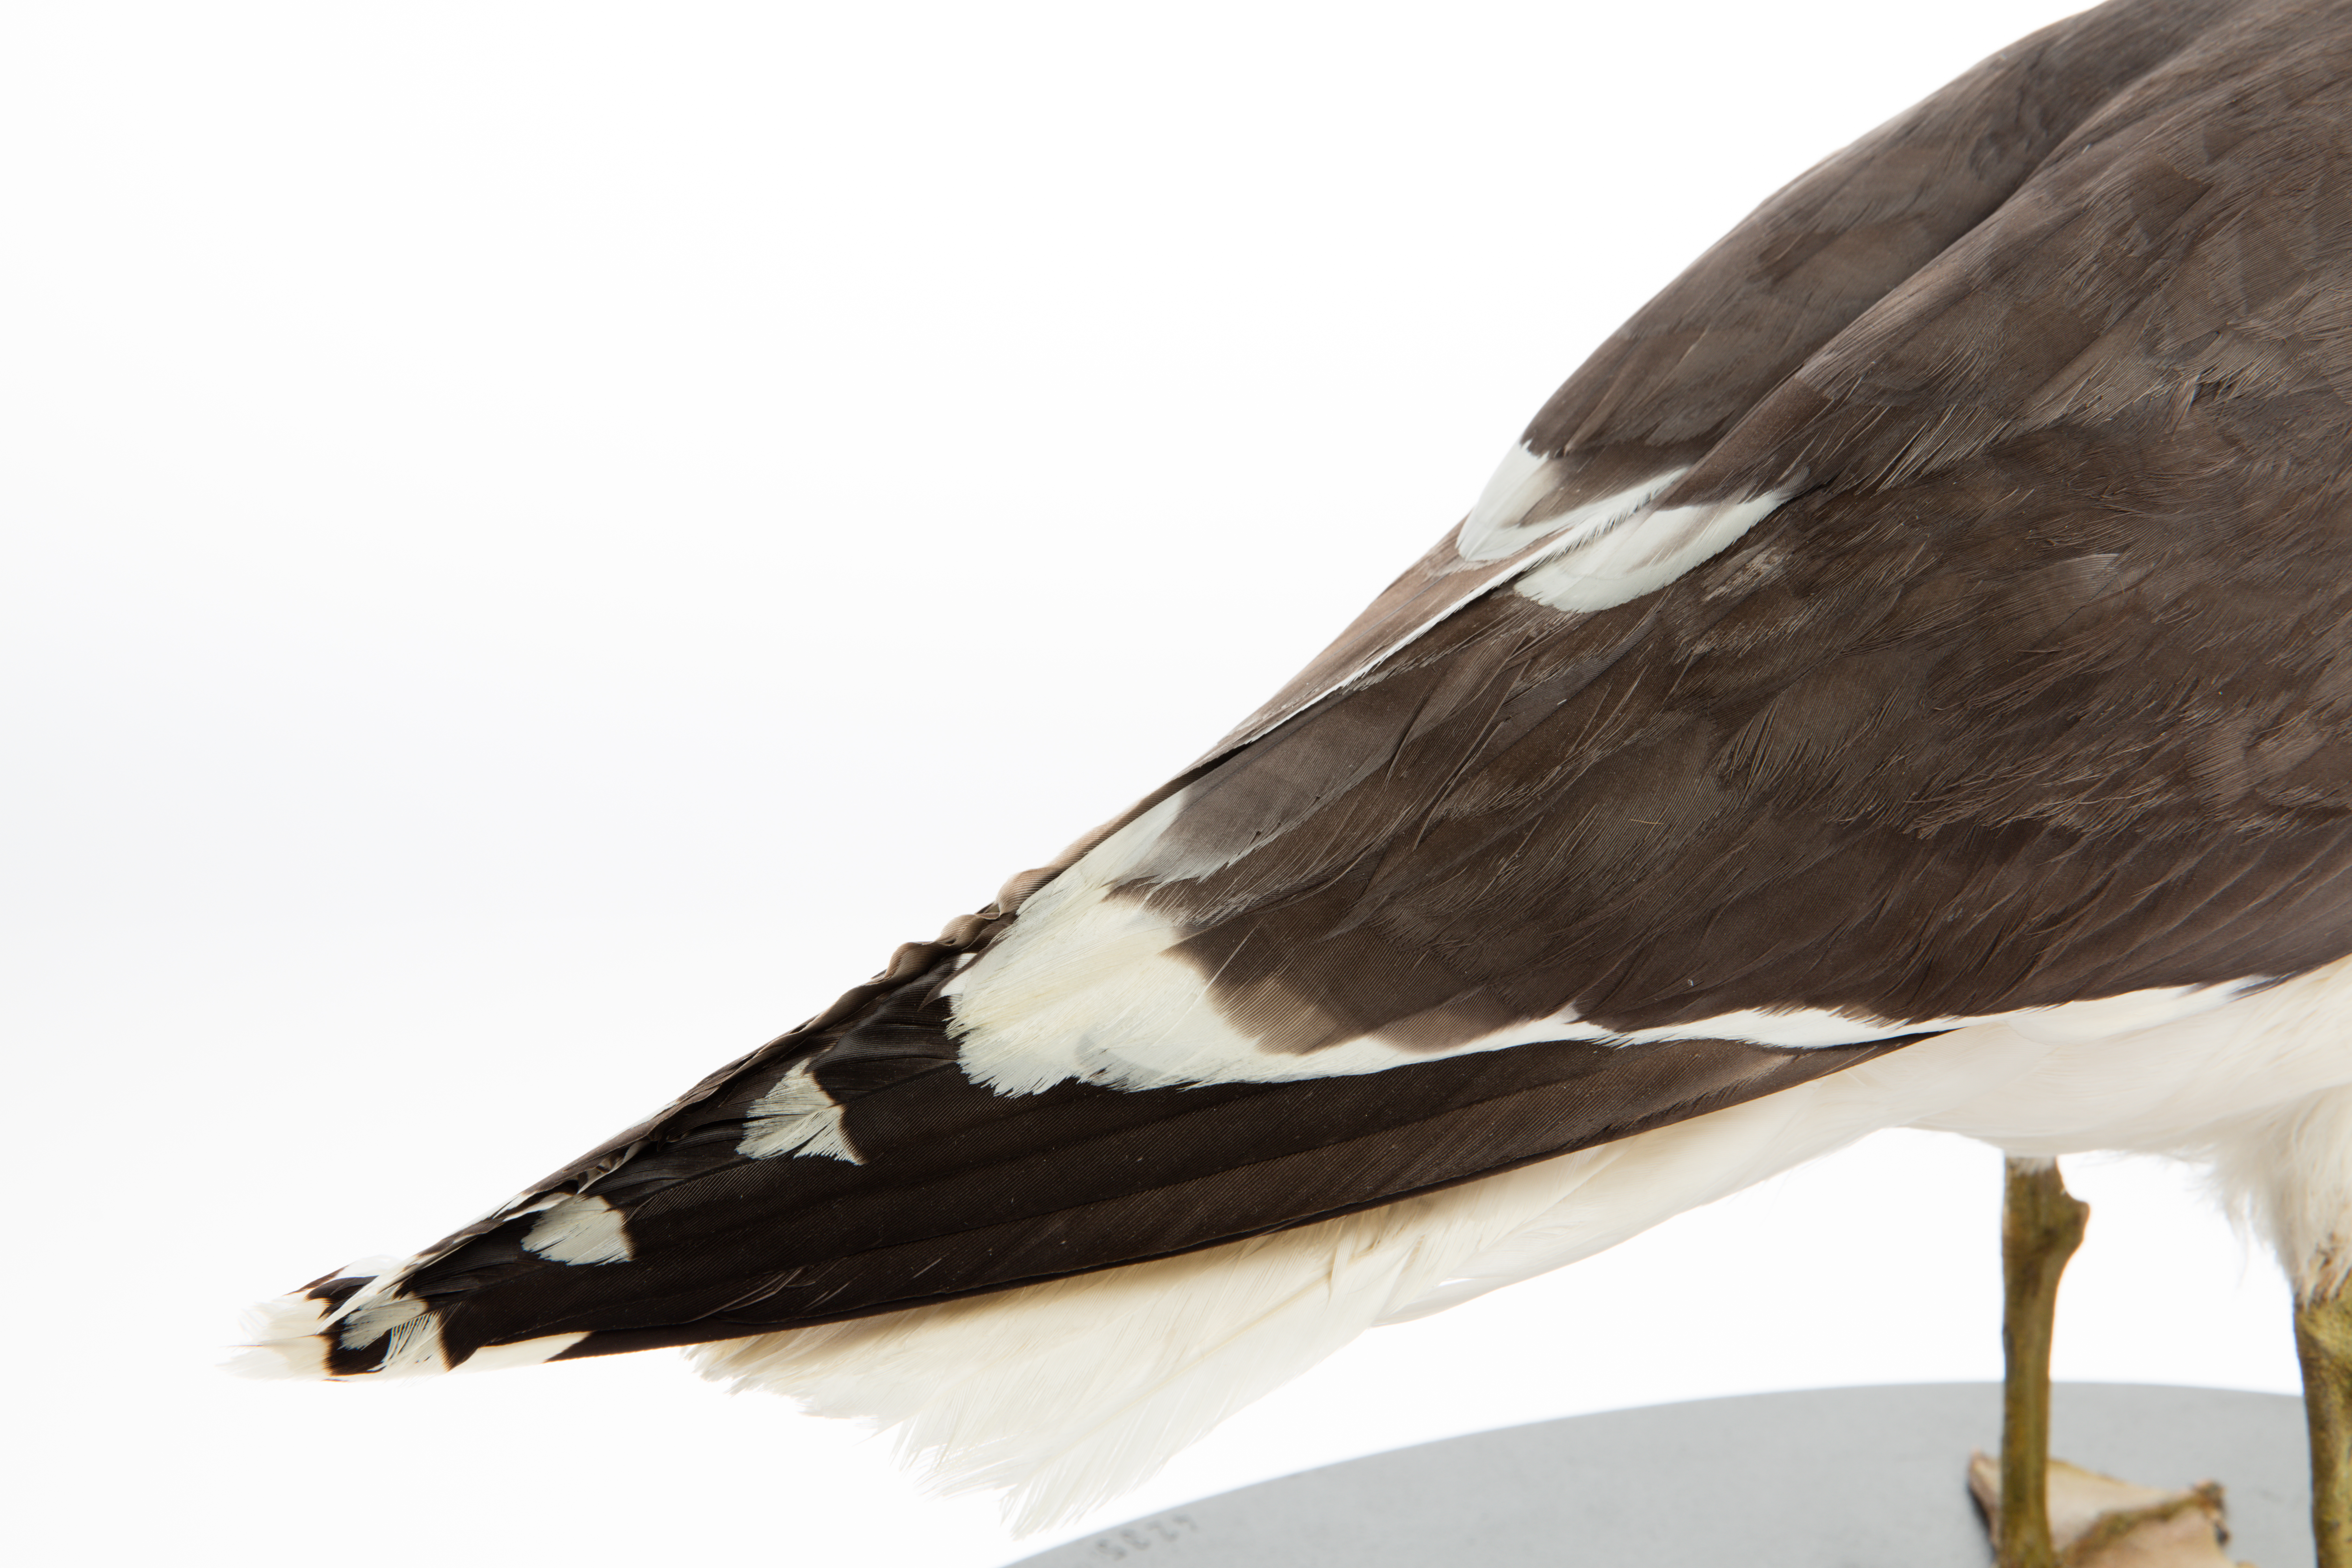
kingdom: Animalia
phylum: Chordata
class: Aves
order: Charadriiformes
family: Laridae
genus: Larus
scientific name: Larus dominicanus
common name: Kelp gull
